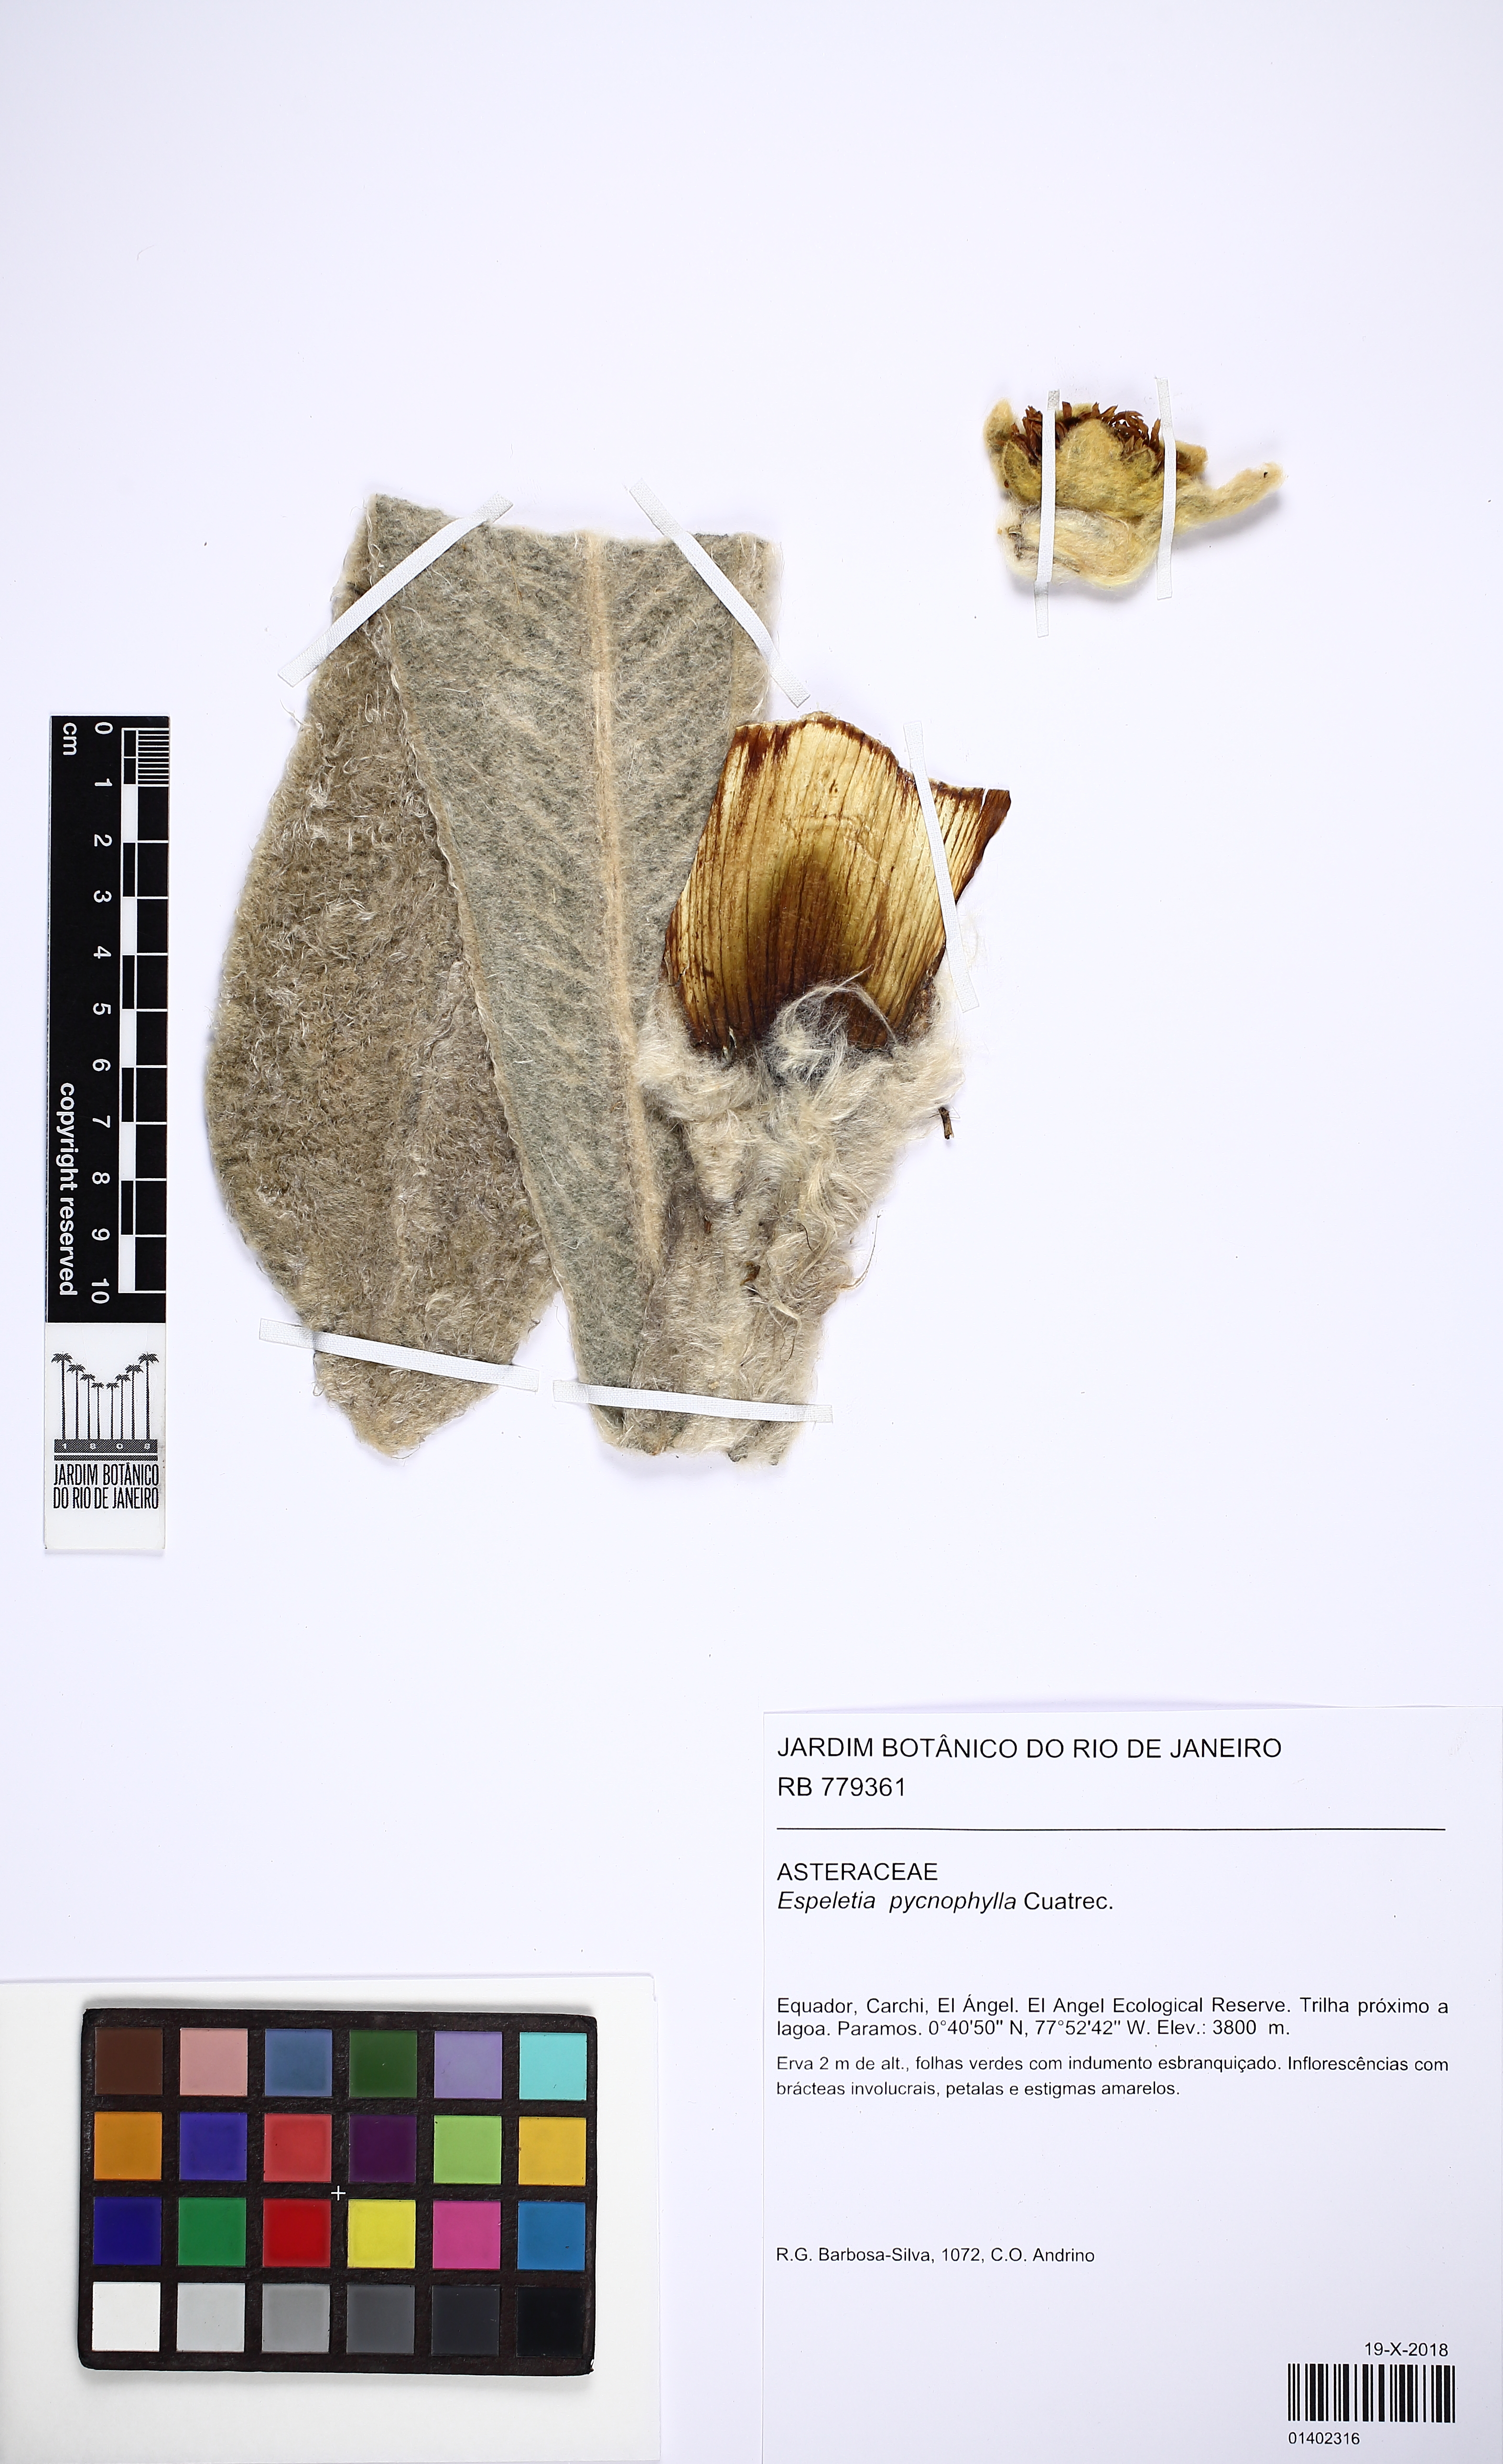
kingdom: Plantae
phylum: Tracheophyta
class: Magnoliopsida
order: Asterales
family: Asteraceae
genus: Espeletia
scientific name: Espeletia pycnophylla
